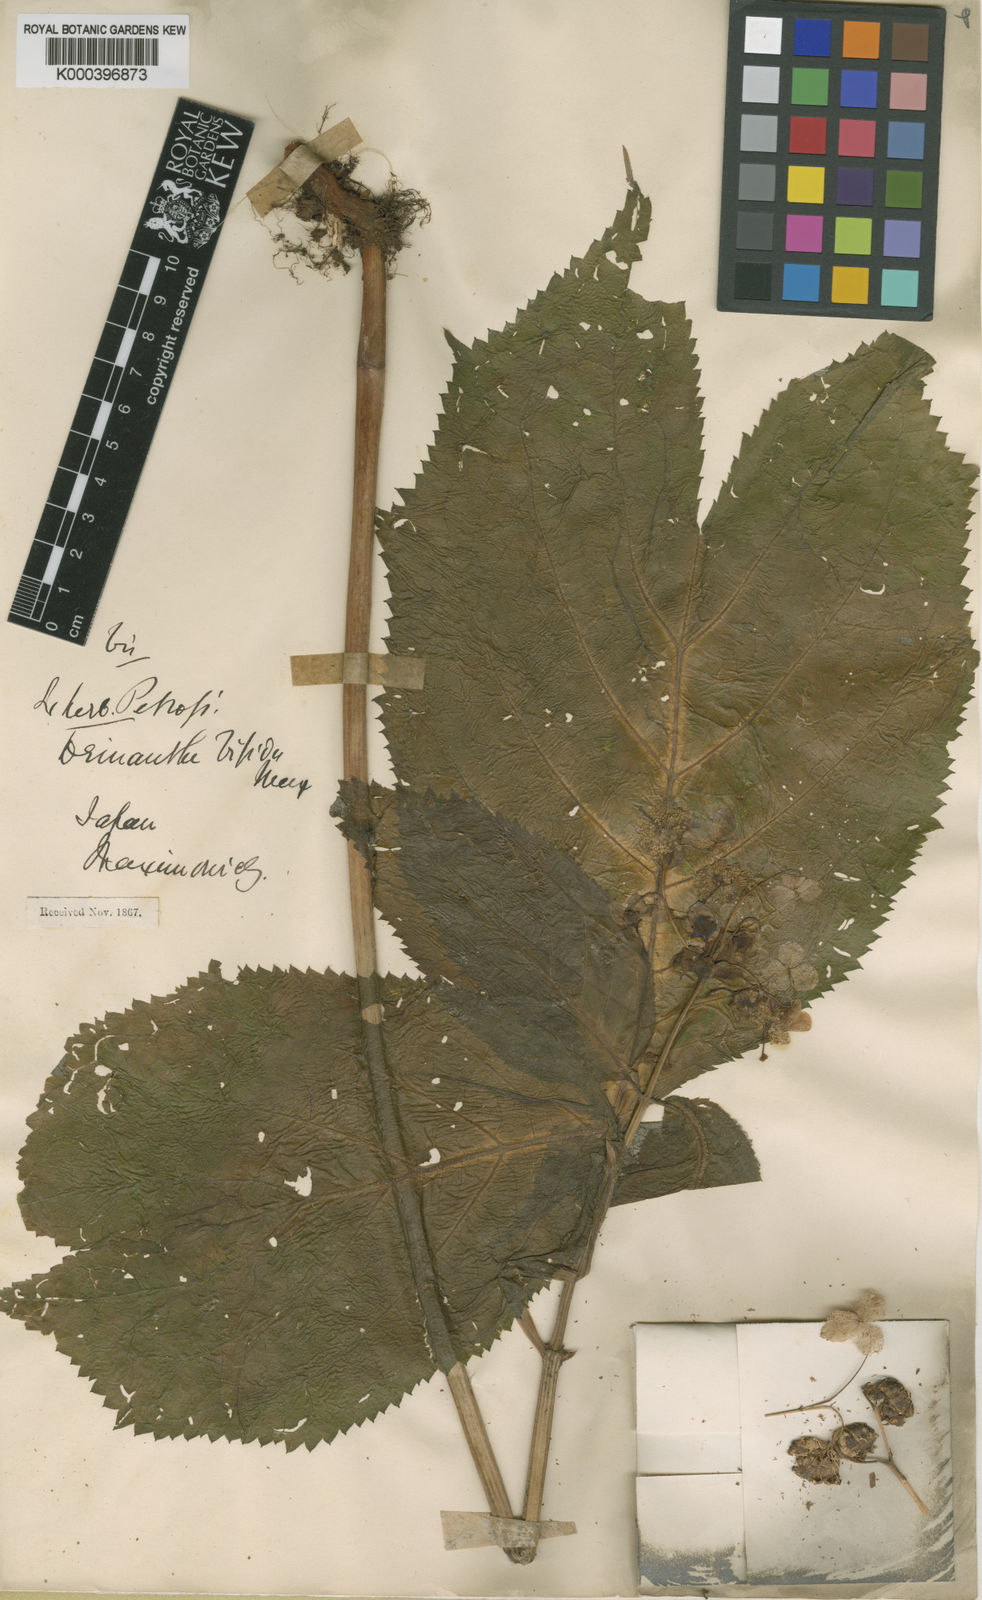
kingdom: Plantae
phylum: Tracheophyta
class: Magnoliopsida
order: Cornales
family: Hydrangeaceae
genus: Hydrangea
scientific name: Hydrangea bifida
